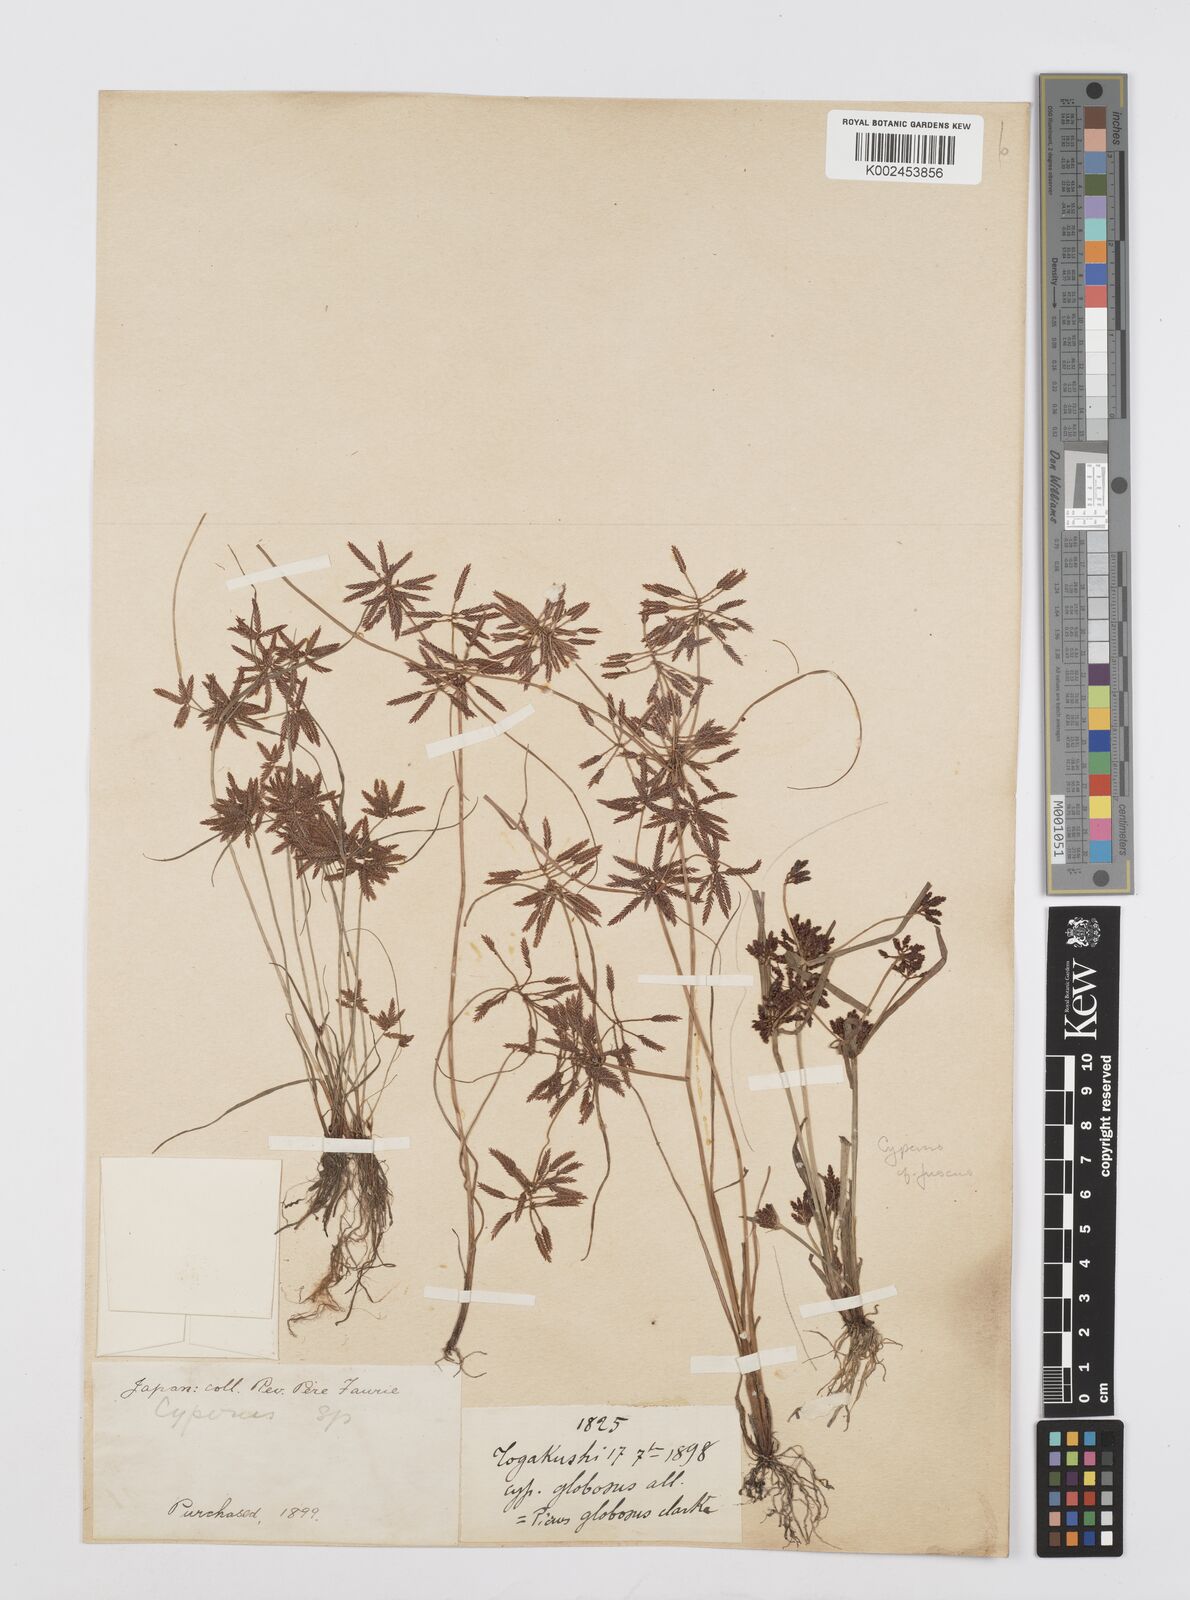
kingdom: Plantae
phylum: Tracheophyta
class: Liliopsida
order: Poales
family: Cyperaceae
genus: Cyperus
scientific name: Cyperus flavidus
